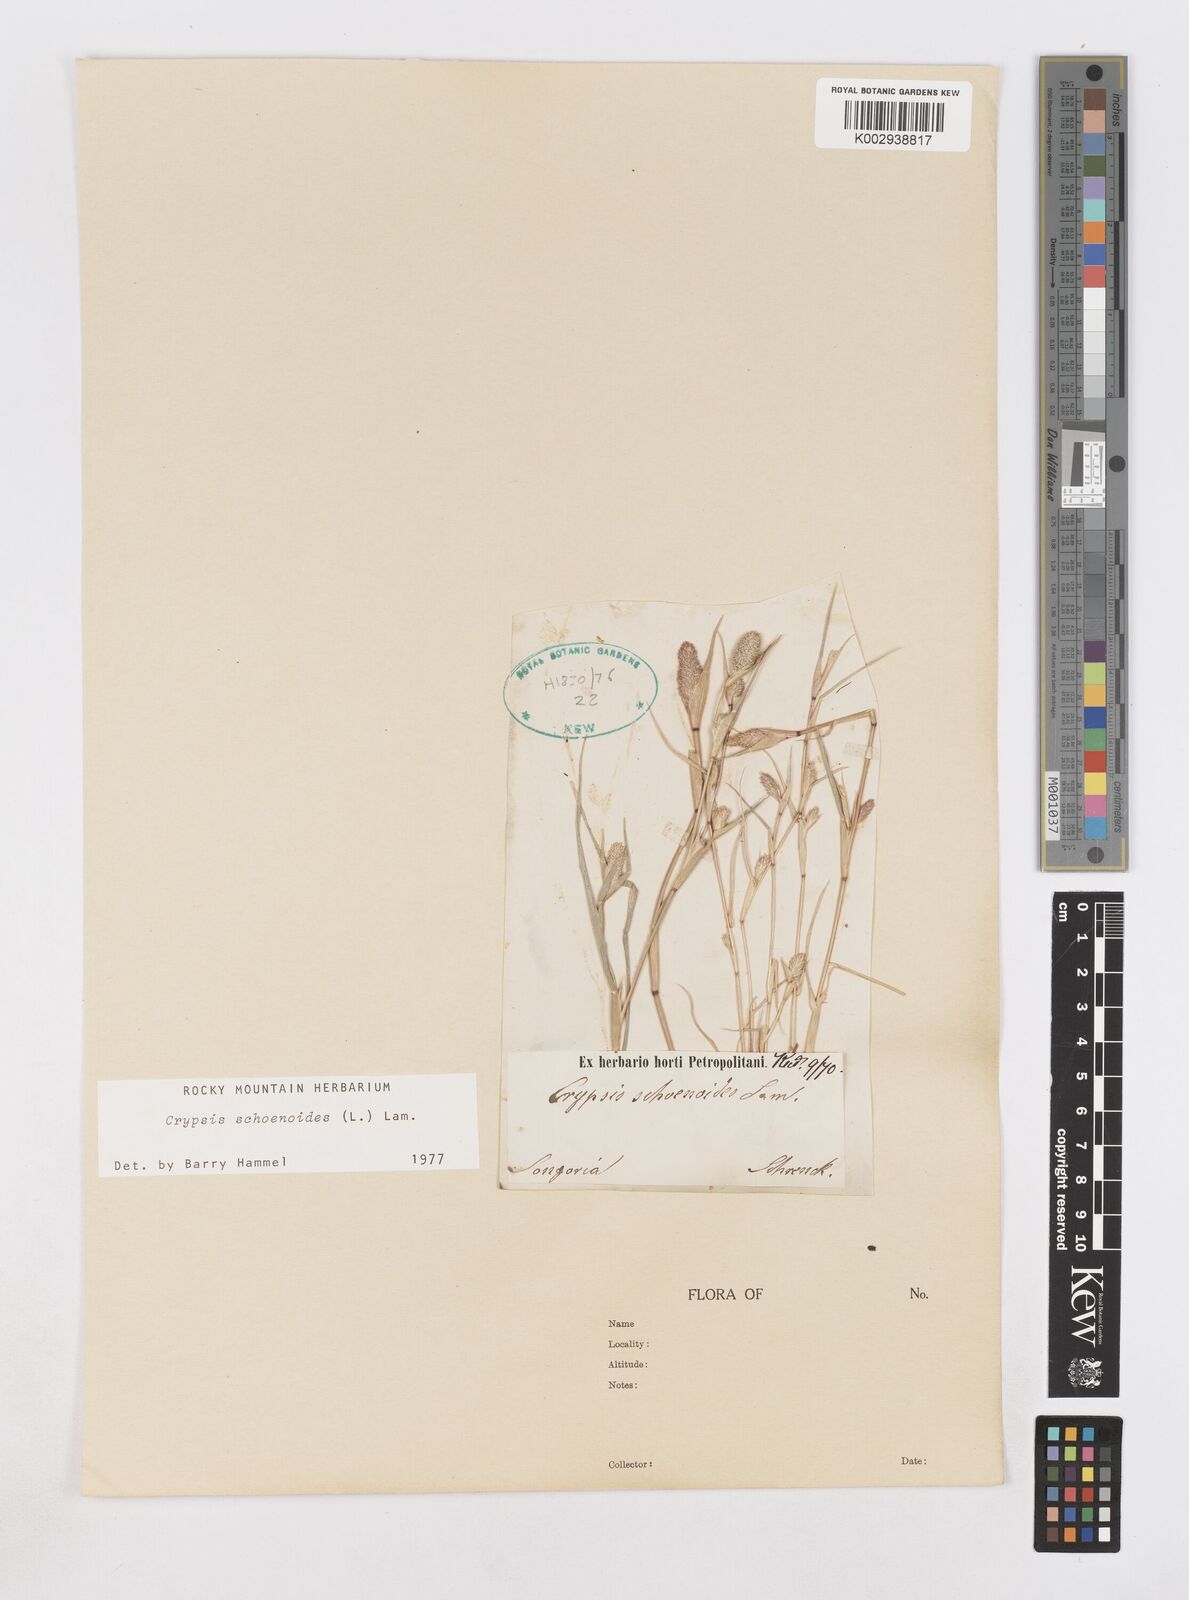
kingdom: Plantae
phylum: Tracheophyta
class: Liliopsida
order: Poales
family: Poaceae
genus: Sporobolus
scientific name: Sporobolus schoenoides
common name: Rush-like timothy
